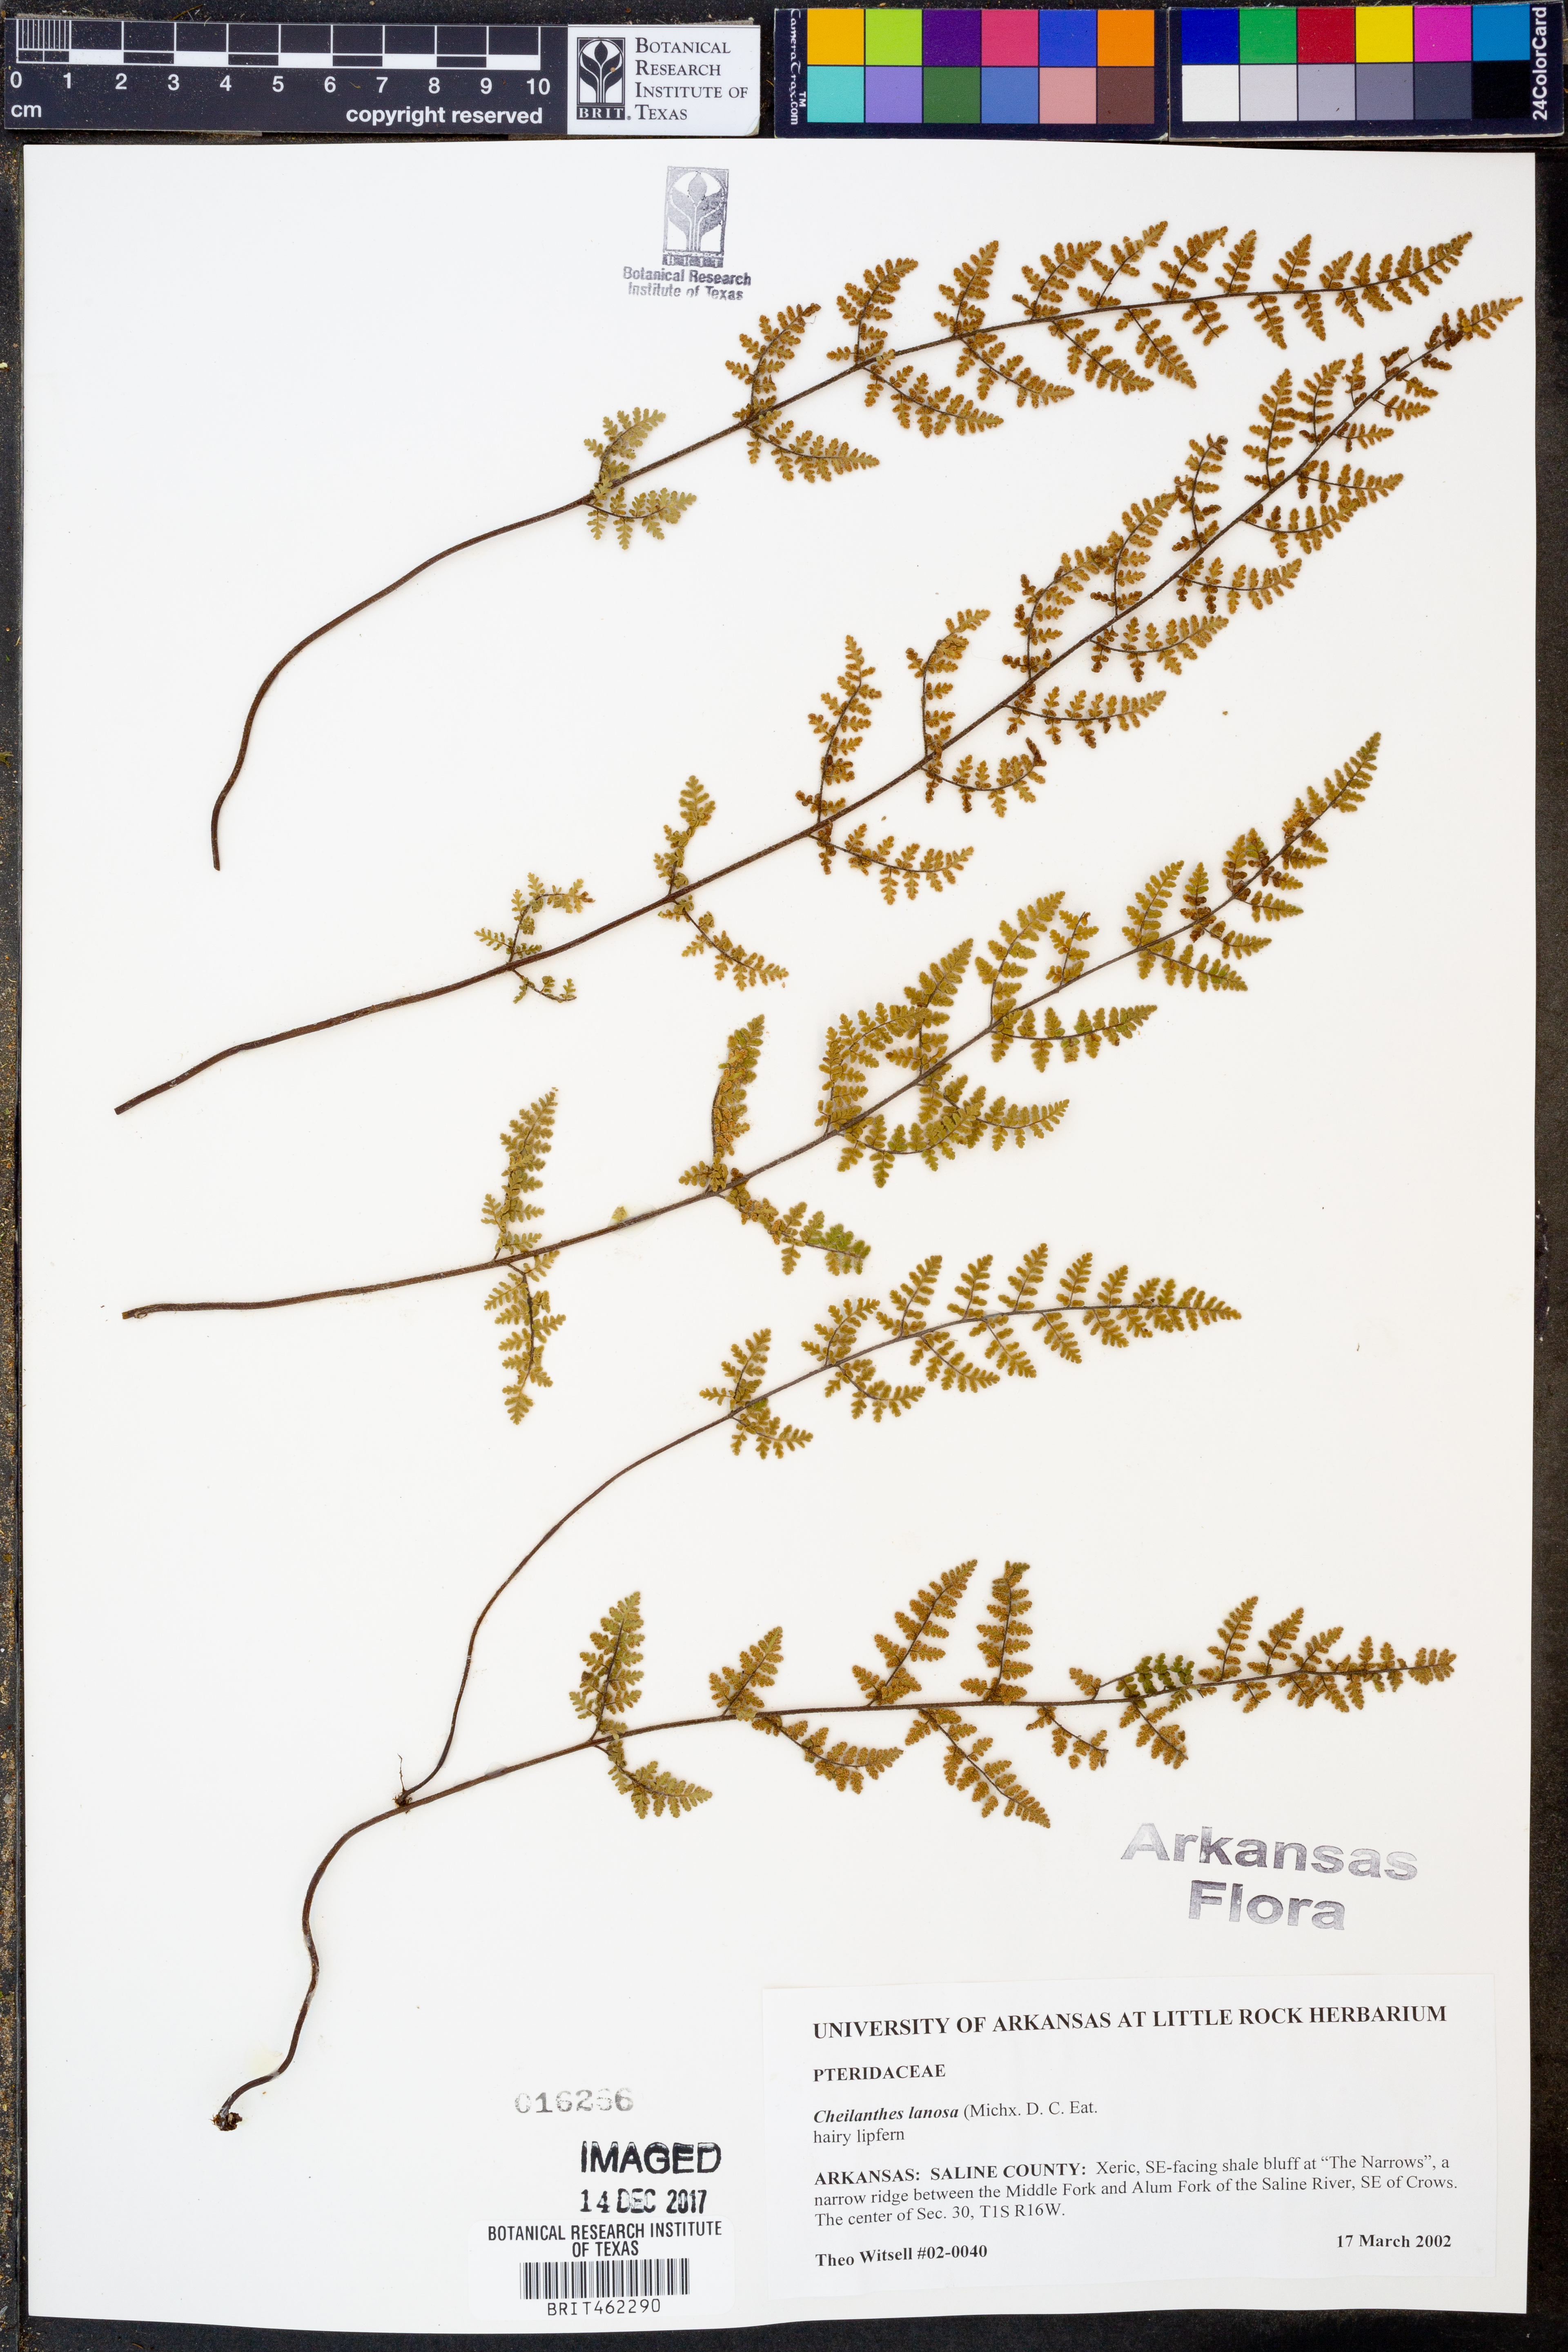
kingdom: Plantae
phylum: Tracheophyta
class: Polypodiopsida
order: Polypodiales
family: Pteridaceae
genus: Myriopteris
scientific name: Myriopteris lanosa
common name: Hairy lip fern
